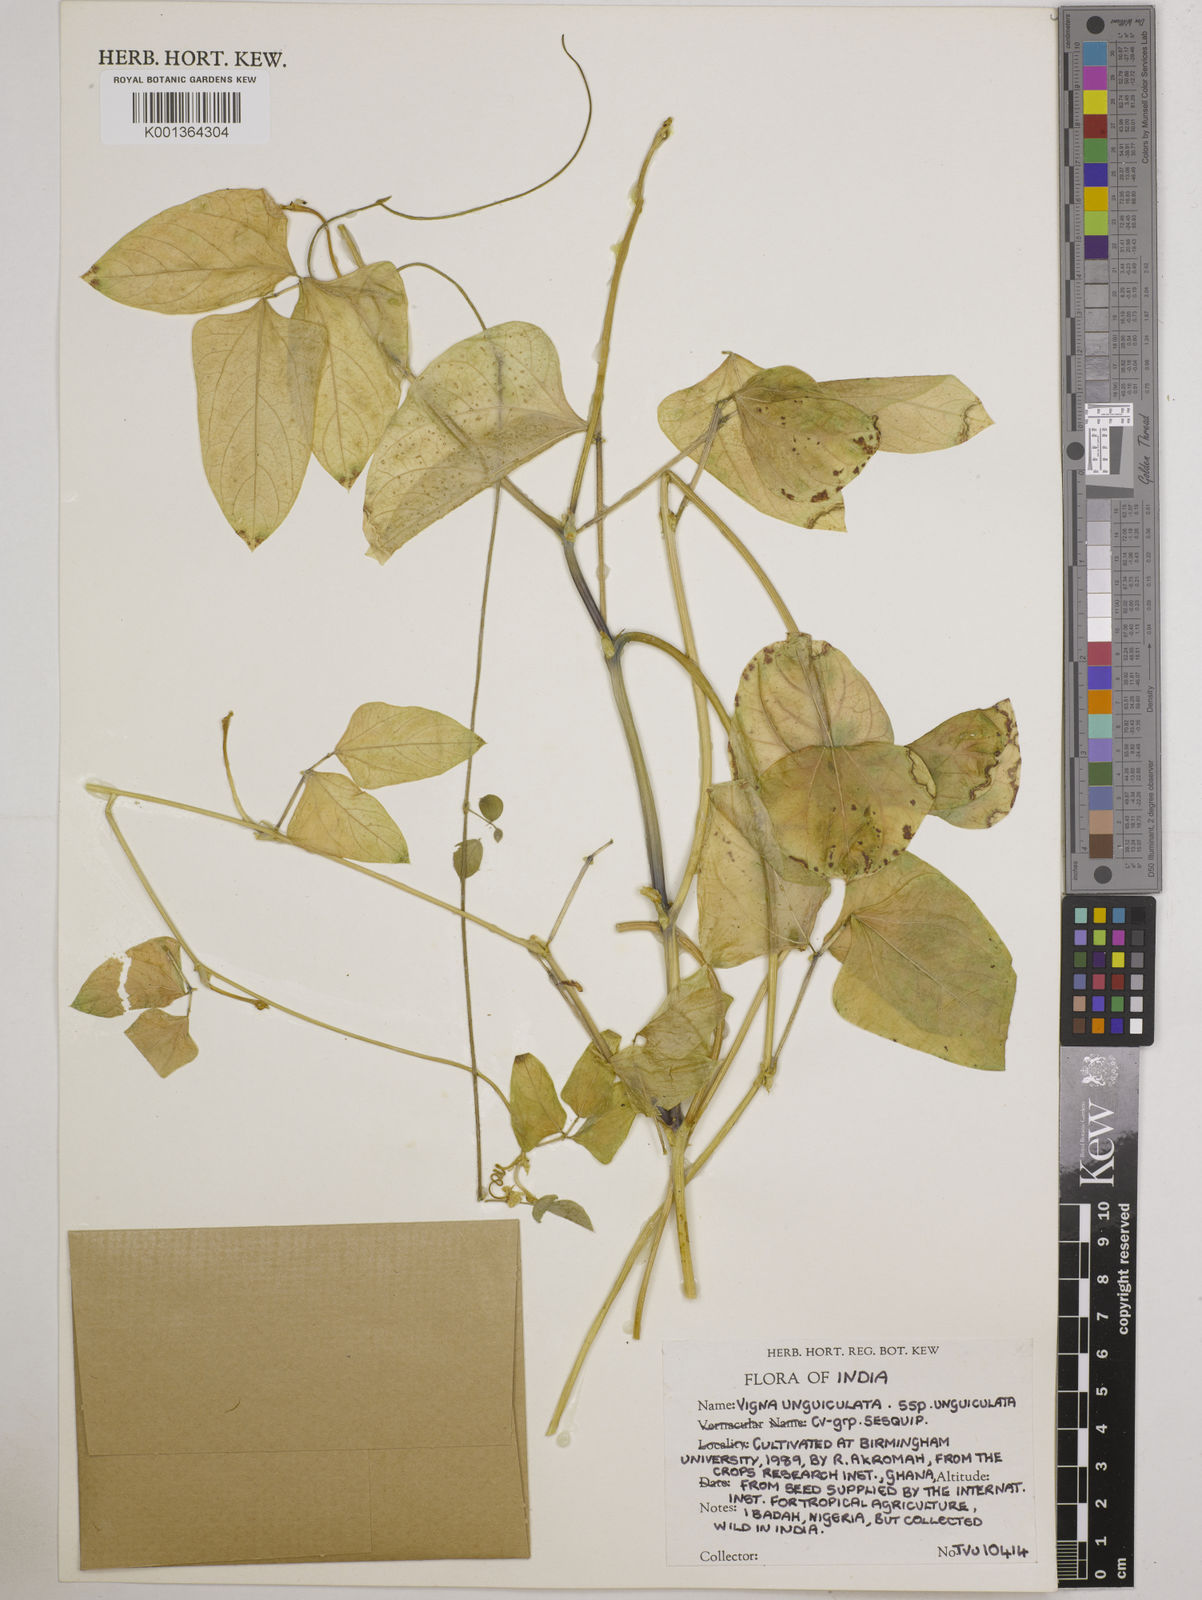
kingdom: Plantae
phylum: Tracheophyta
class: Magnoliopsida
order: Fabales
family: Fabaceae
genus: Vigna
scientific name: Vigna
